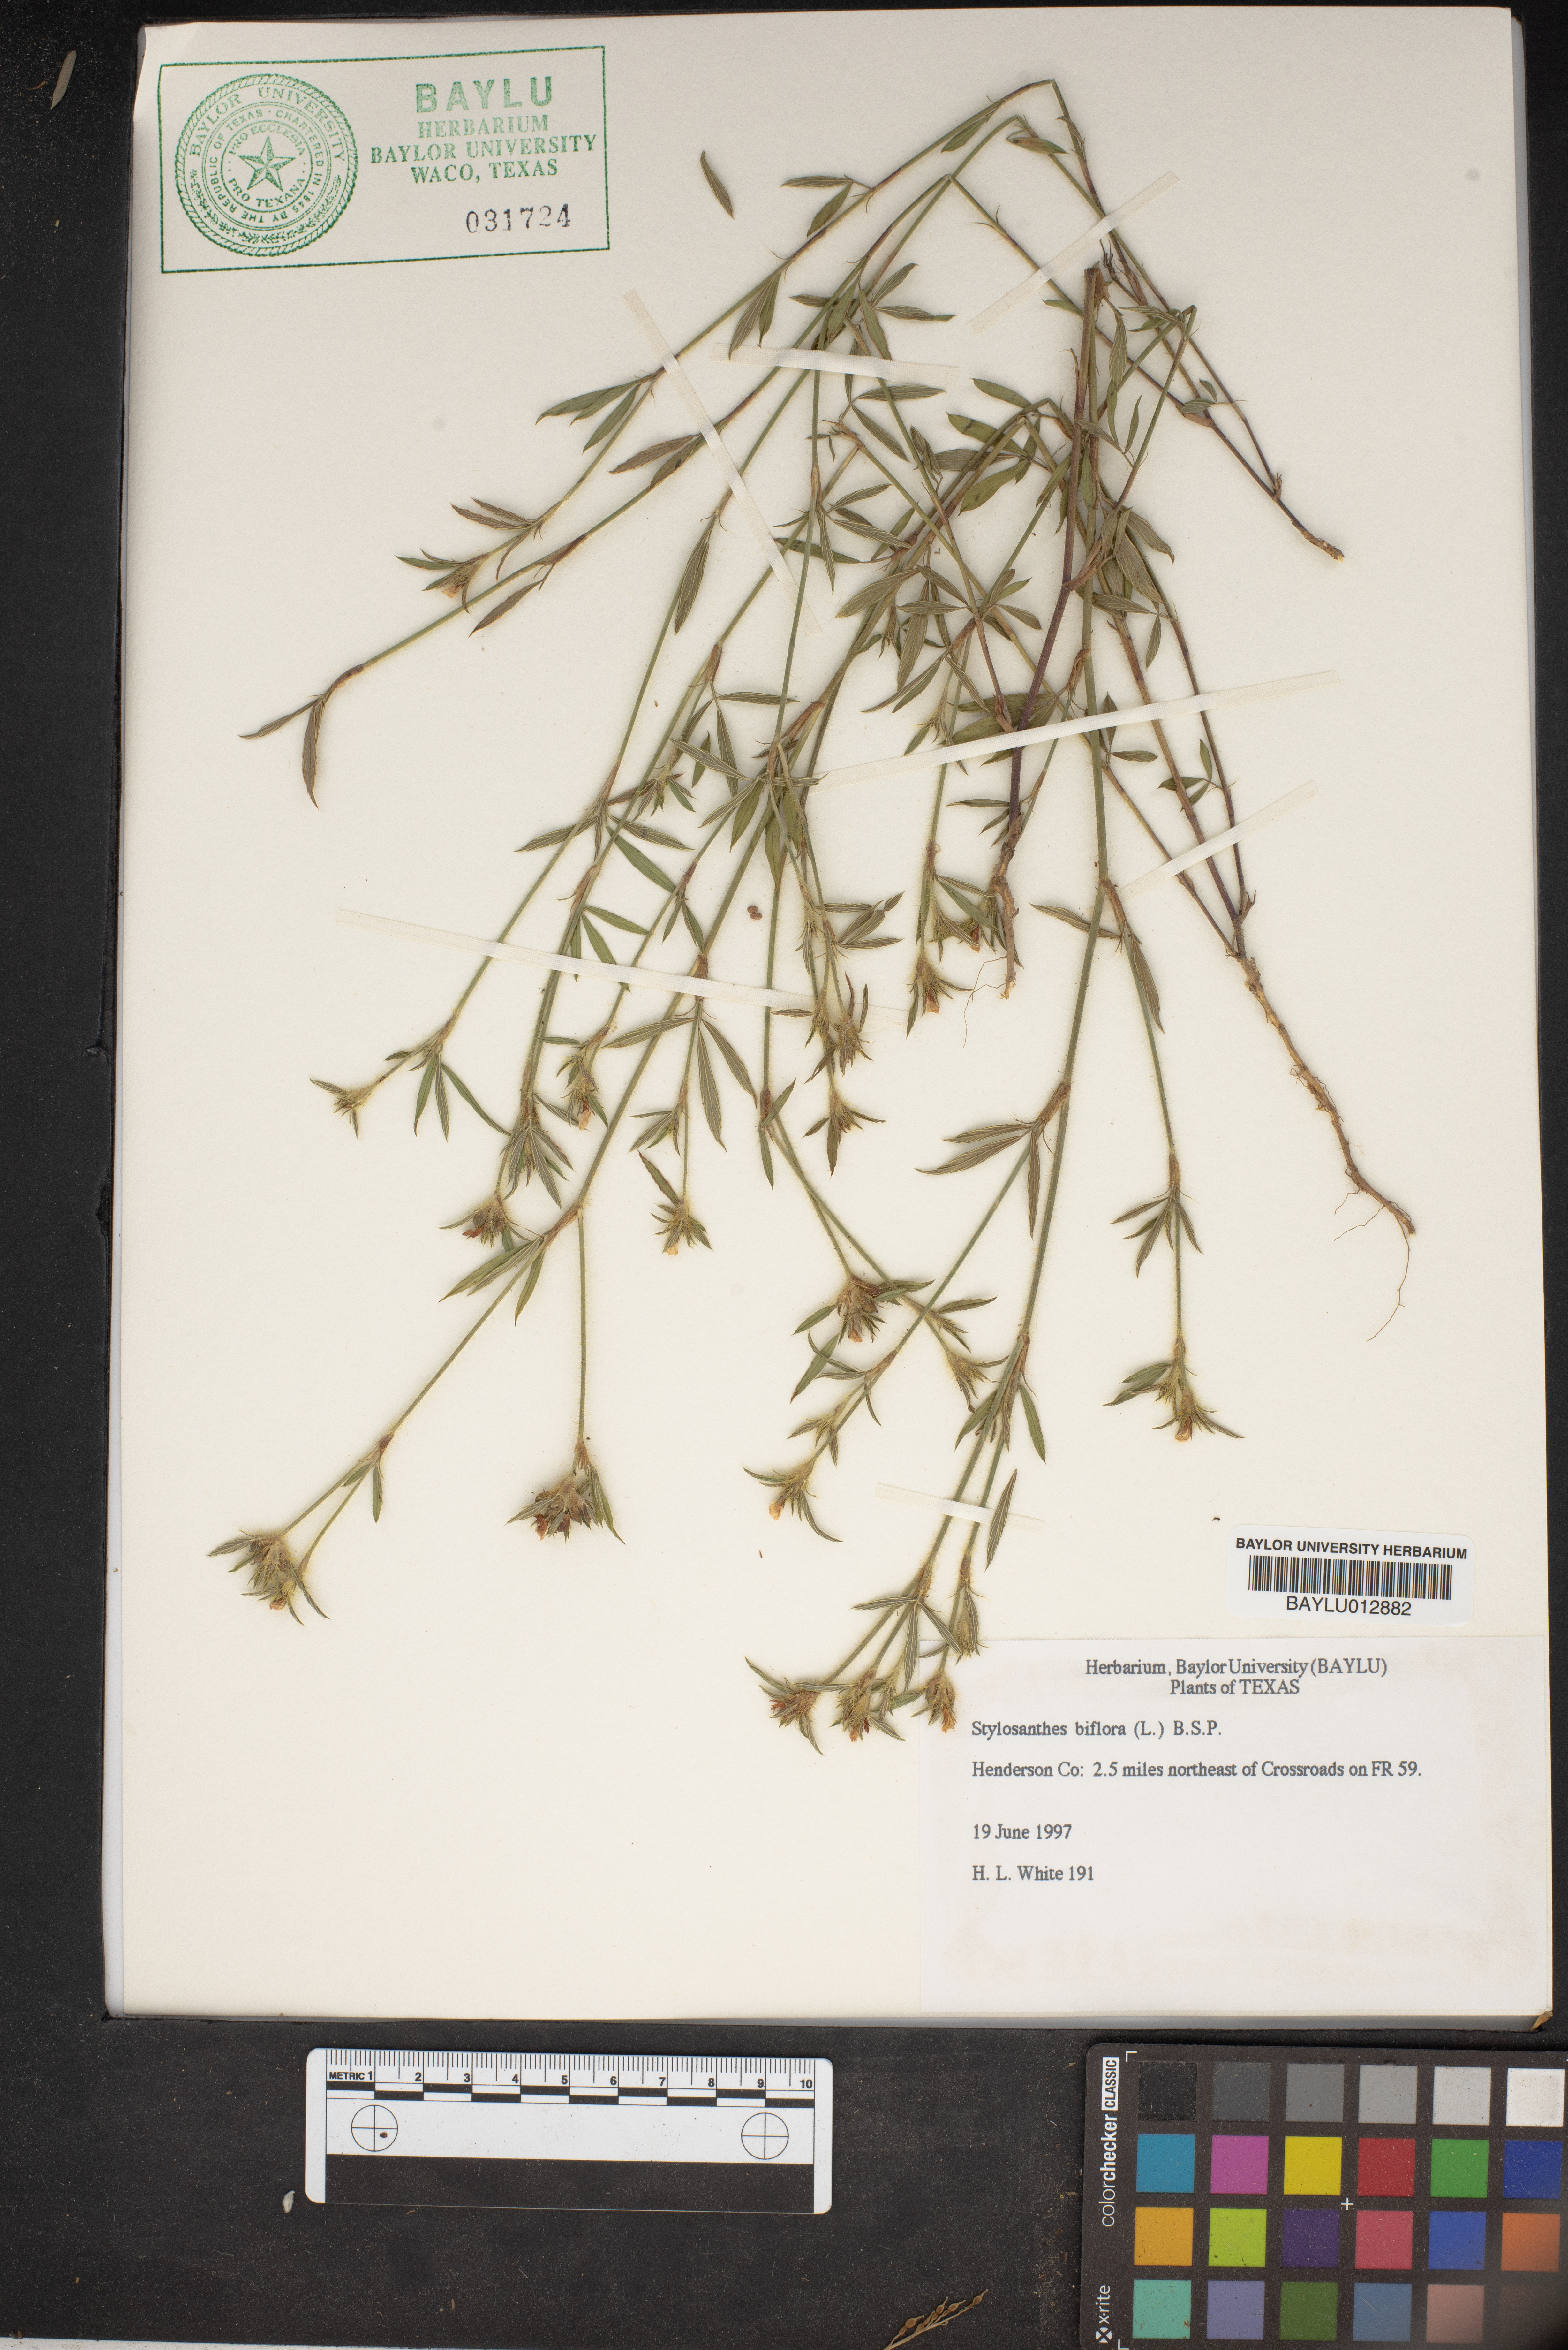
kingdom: Plantae
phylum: Tracheophyta
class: Magnoliopsida
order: Fabales
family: Fabaceae
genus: Stylosanthes
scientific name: Stylosanthes biflora
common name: Two-flower pencil-flower
